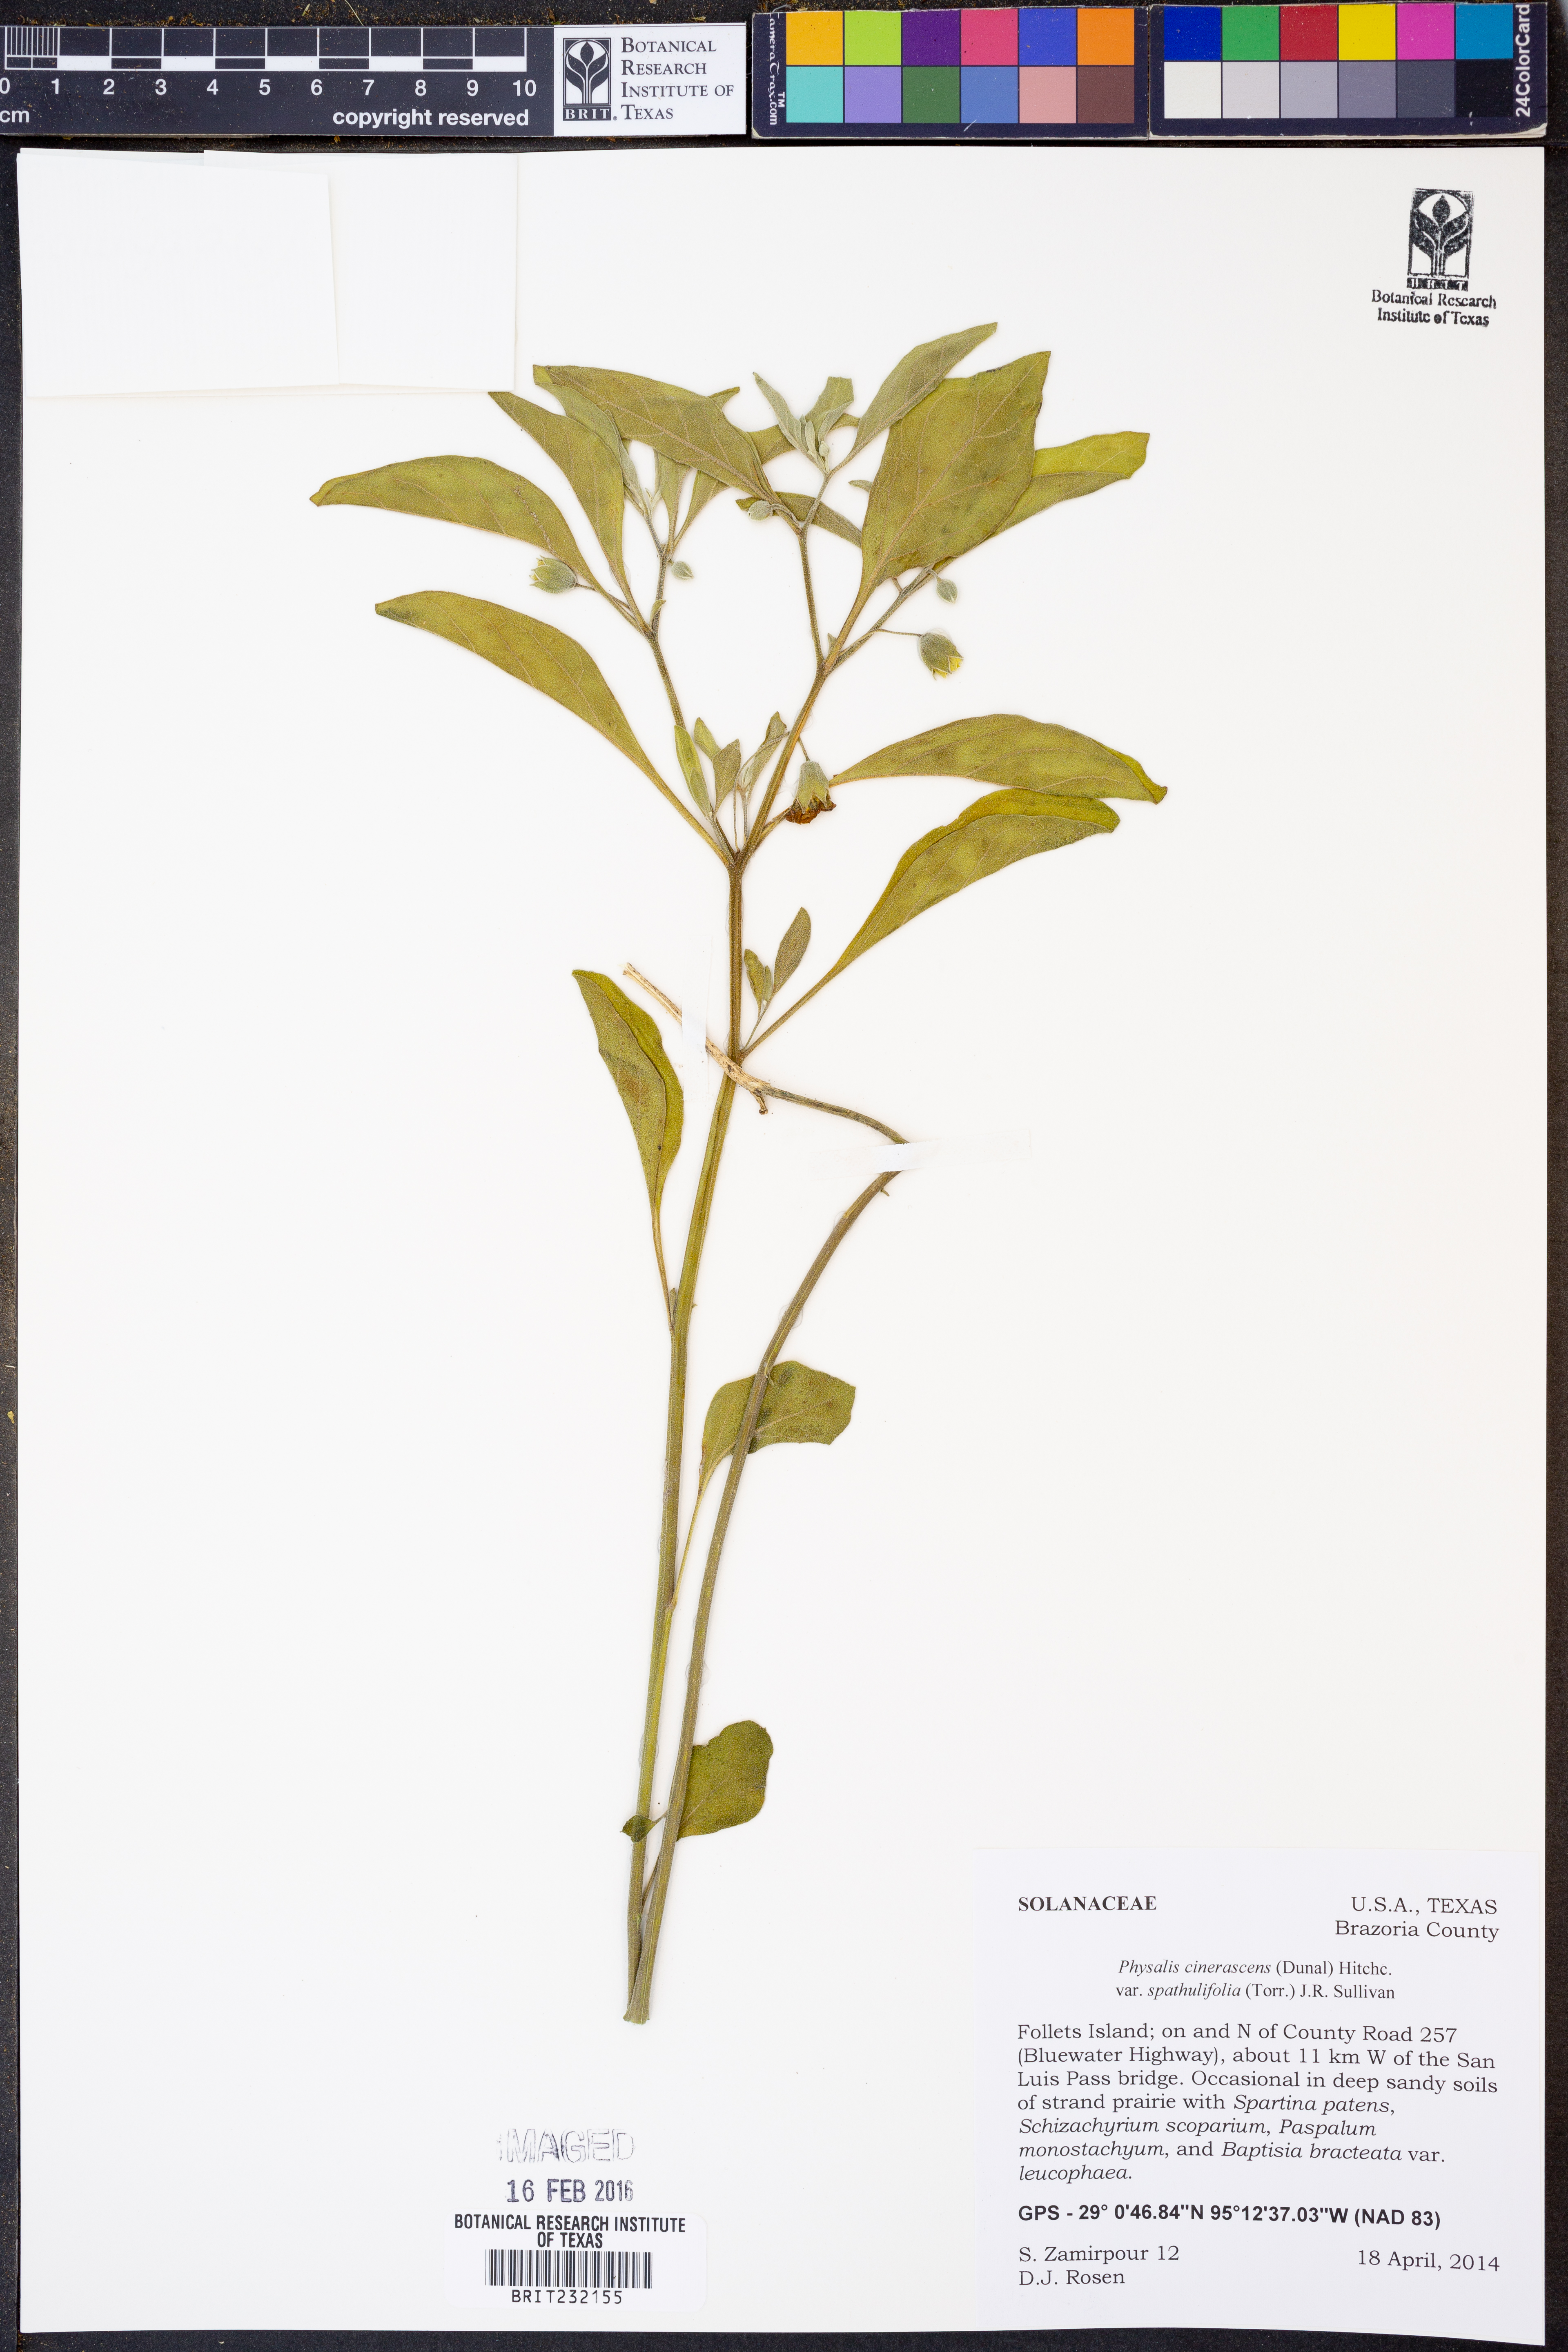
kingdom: Plantae
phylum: Tracheophyta
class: Magnoliopsida
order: Solanales
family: Solanaceae
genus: Physalis
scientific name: Physalis cinerascens
